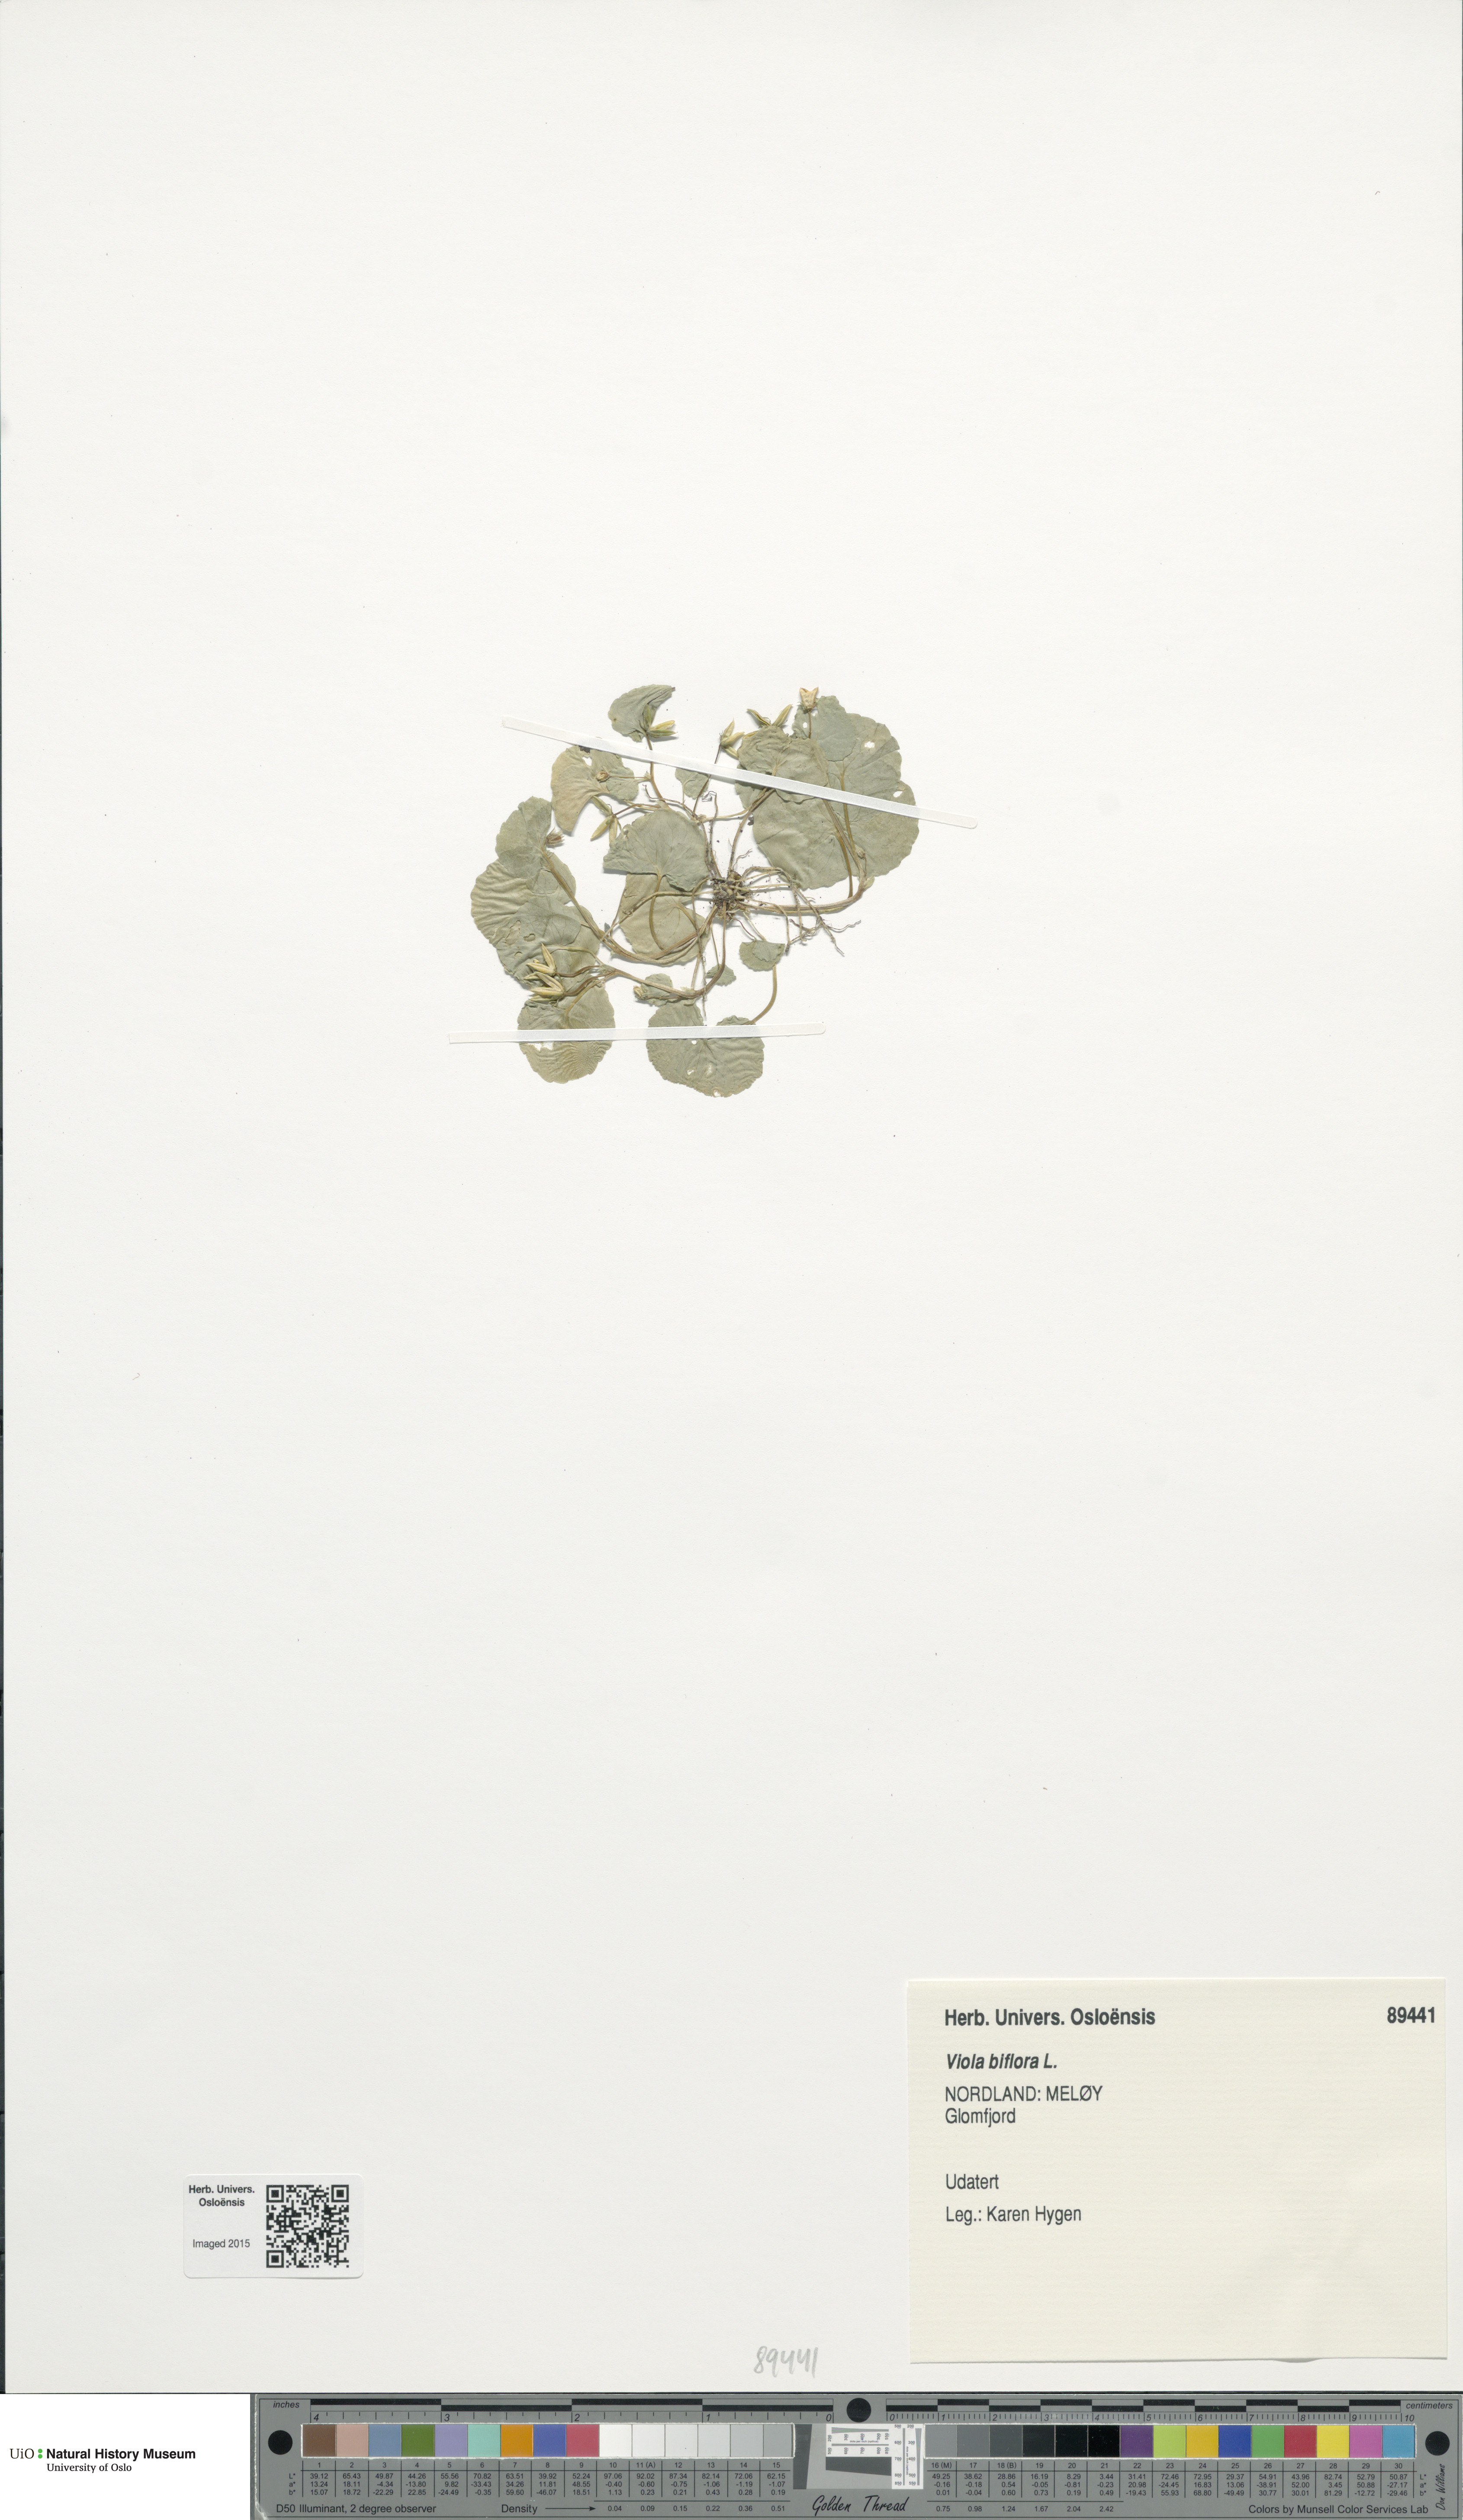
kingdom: Plantae
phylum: Tracheophyta
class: Magnoliopsida
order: Malpighiales
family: Violaceae
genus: Viola
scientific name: Viola biflora
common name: Alpine yellow violet
